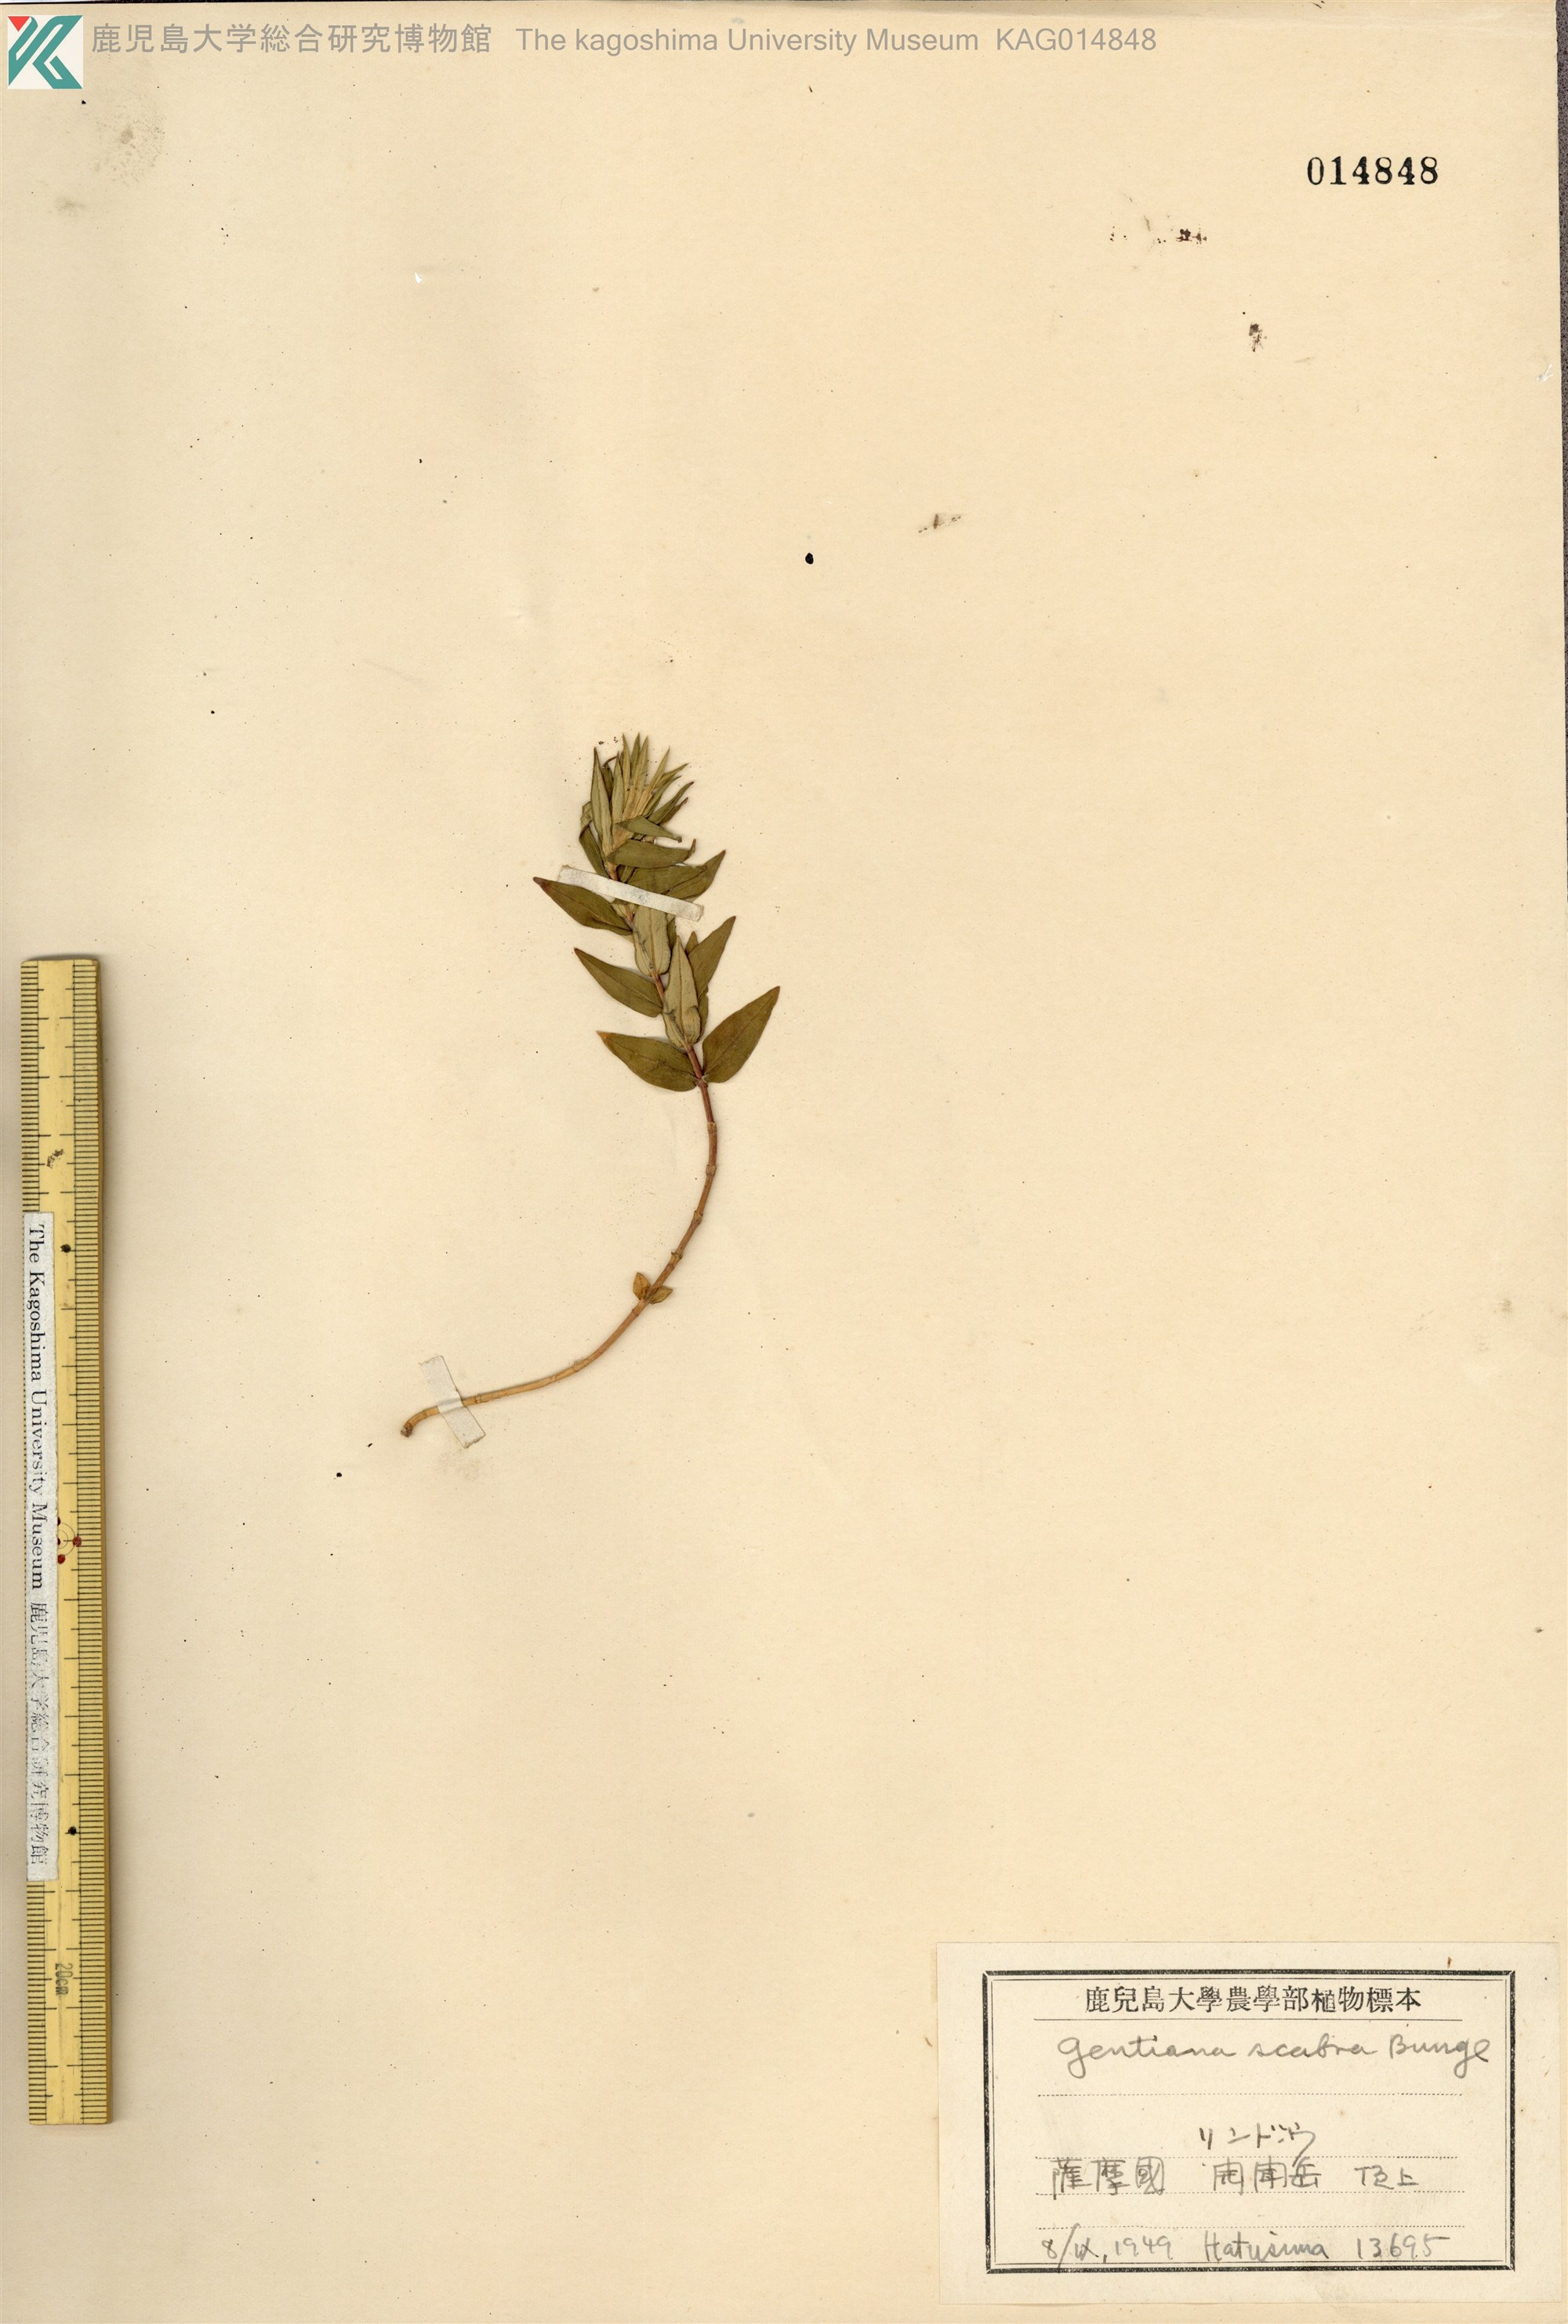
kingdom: Plantae
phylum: Tracheophyta
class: Magnoliopsida
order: Gentianales
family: Gentianaceae
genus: Gentiana
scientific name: Gentiana scabra
